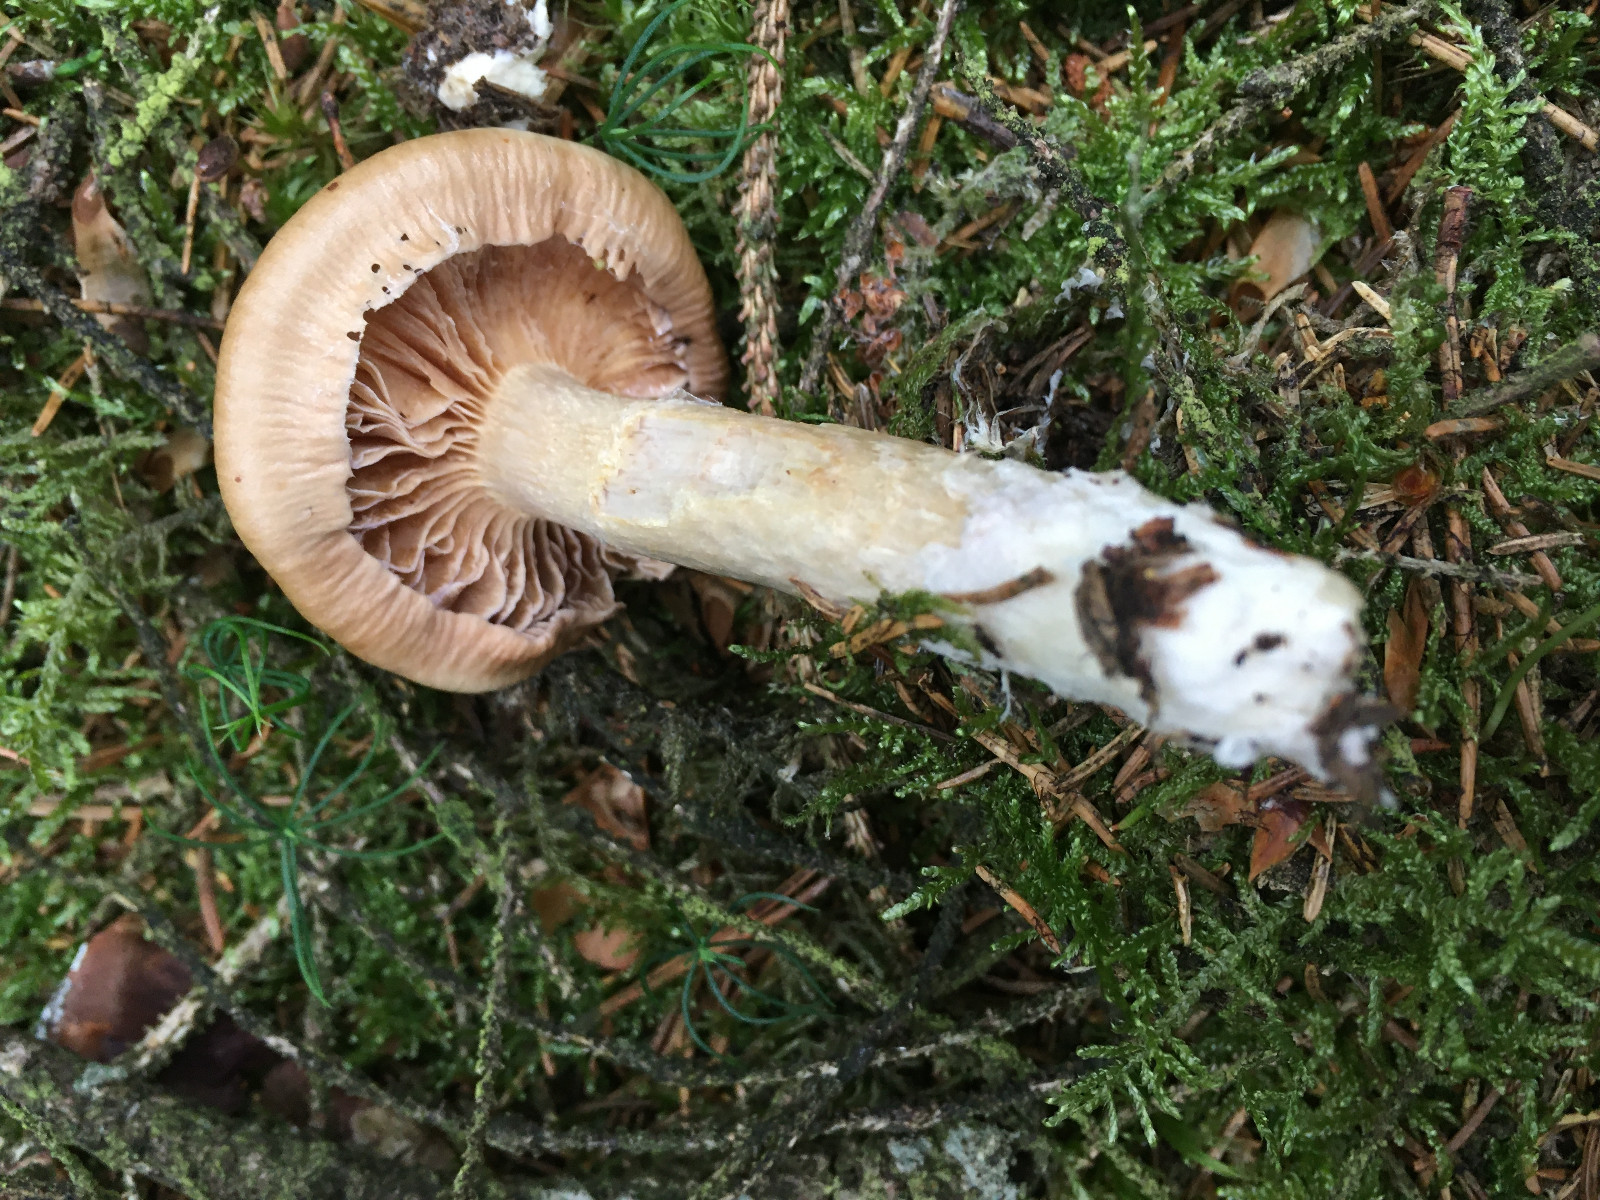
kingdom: Fungi
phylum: Basidiomycota
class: Agaricomycetes
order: Agaricales
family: Cortinariaceae
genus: Cortinarius
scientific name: Cortinarius
